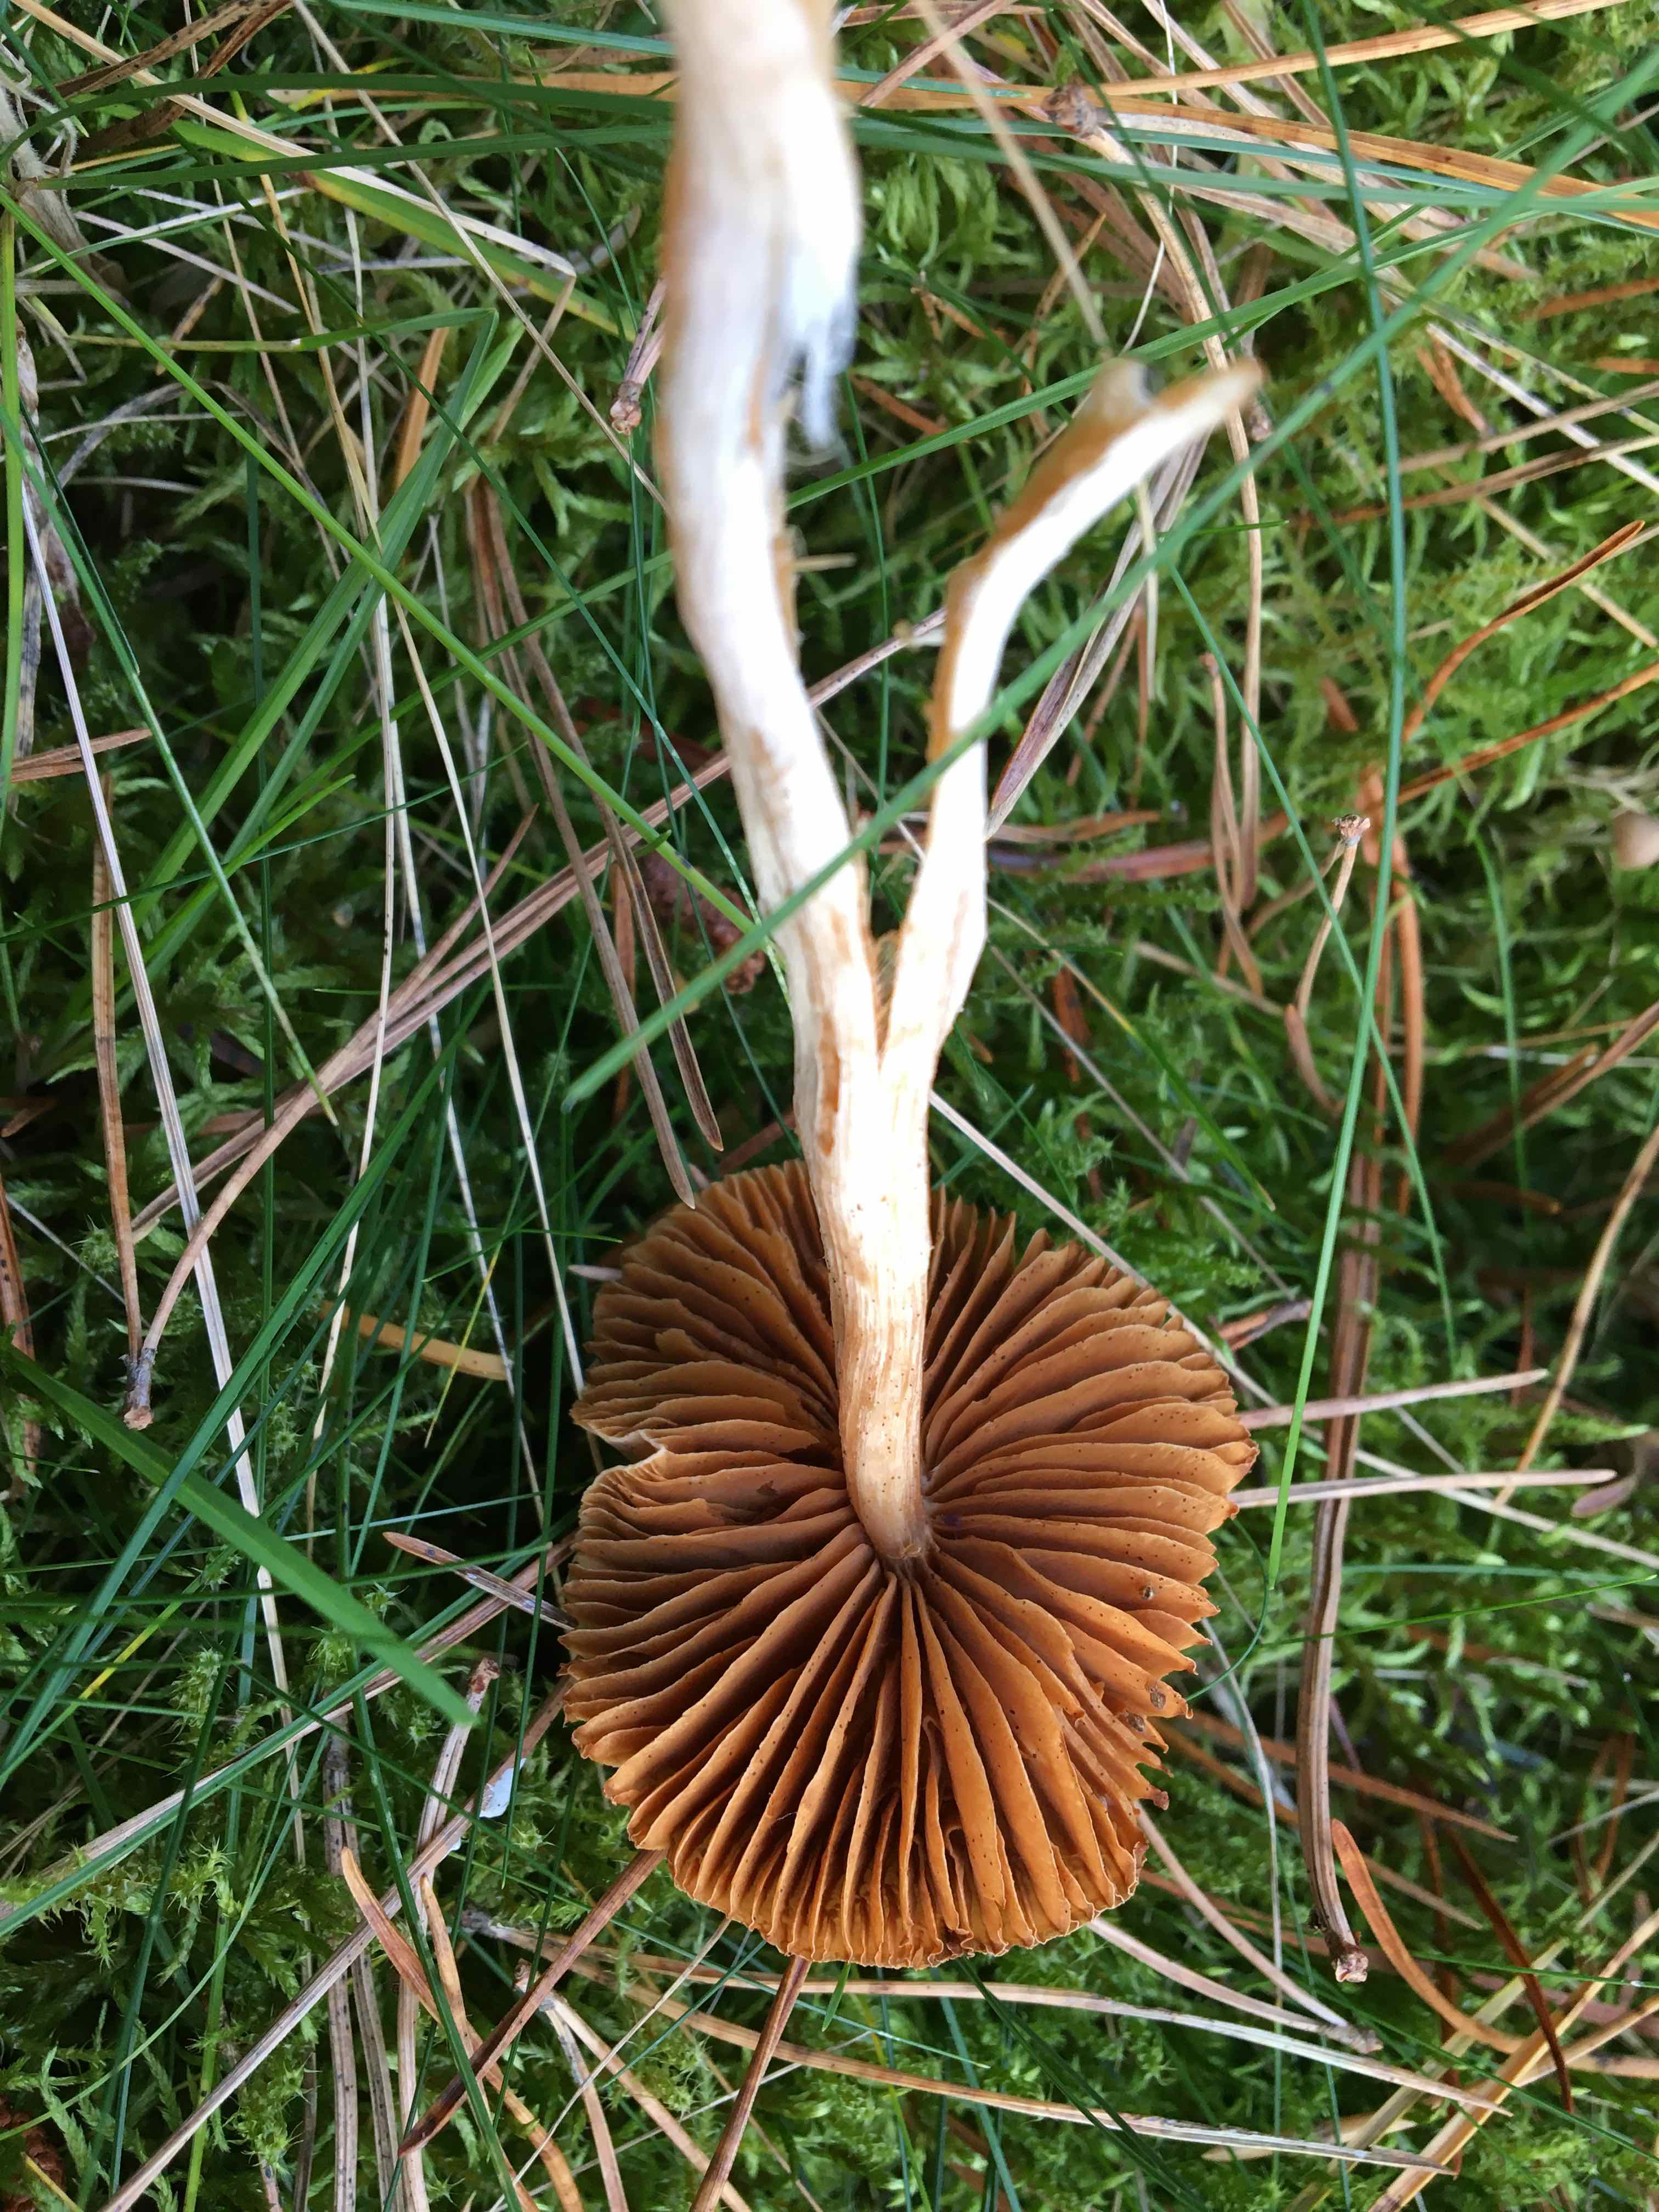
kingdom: Fungi
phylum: Basidiomycota
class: Agaricomycetes
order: Agaricales
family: Cortinariaceae
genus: Cortinarius
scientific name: Cortinarius
